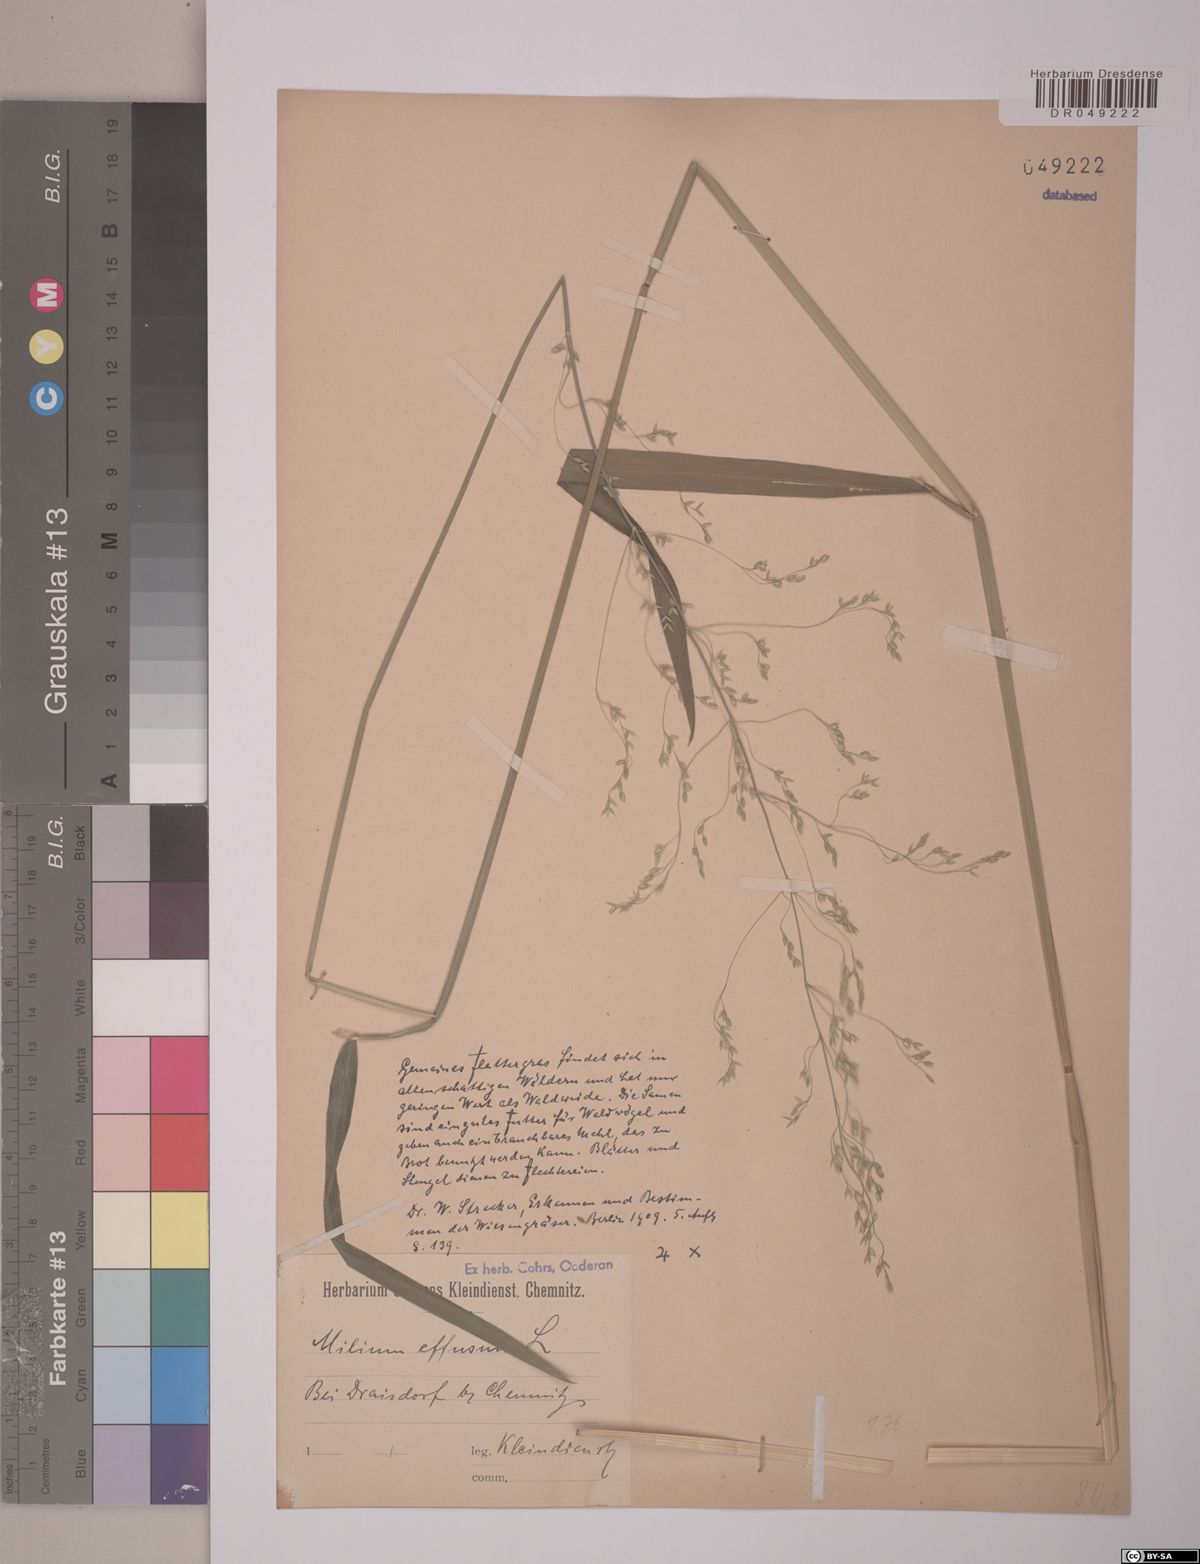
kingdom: Plantae
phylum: Tracheophyta
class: Liliopsida
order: Poales
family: Poaceae
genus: Milium
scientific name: Milium effusum
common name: Wood millet
